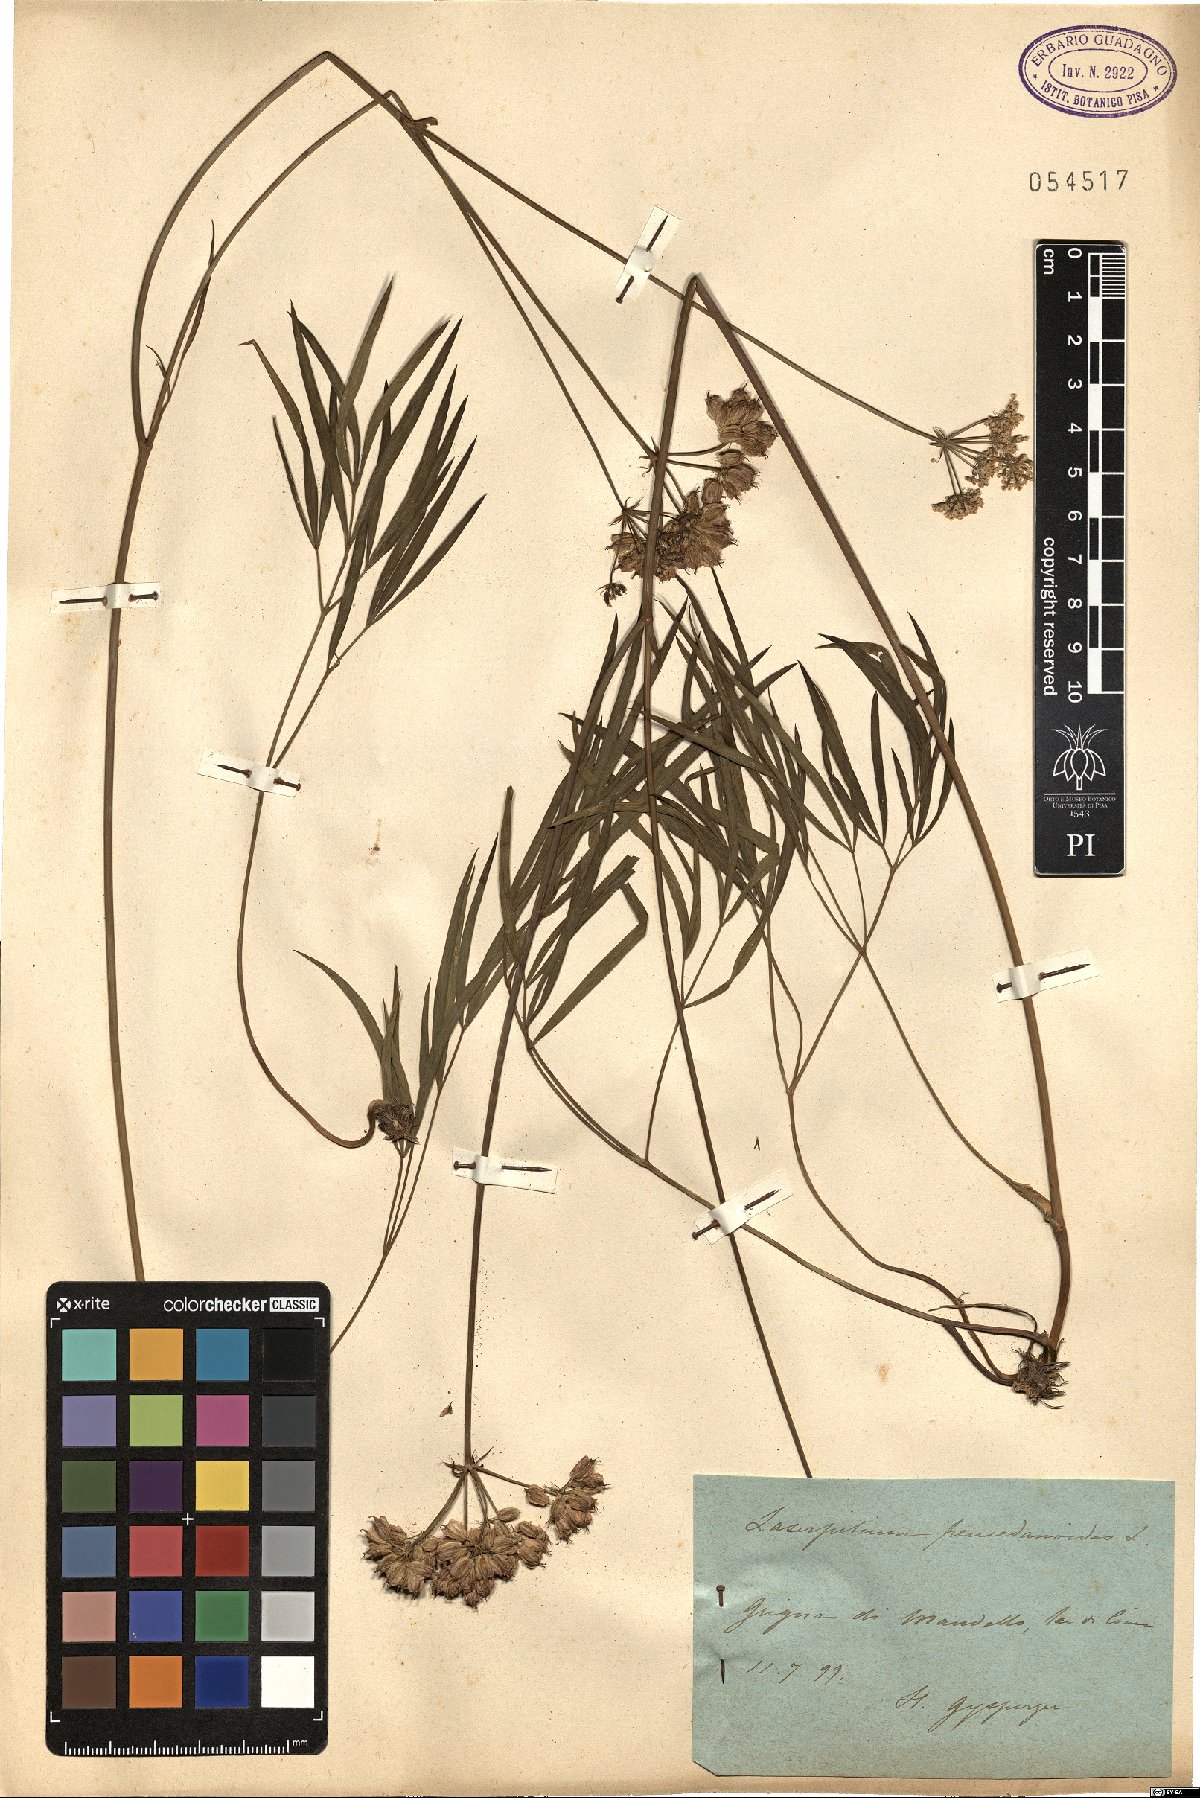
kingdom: Plantae
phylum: Tracheophyta
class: Magnoliopsida
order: Apiales
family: Apiaceae
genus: Laserpitium
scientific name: Laserpitium peucedanoides
